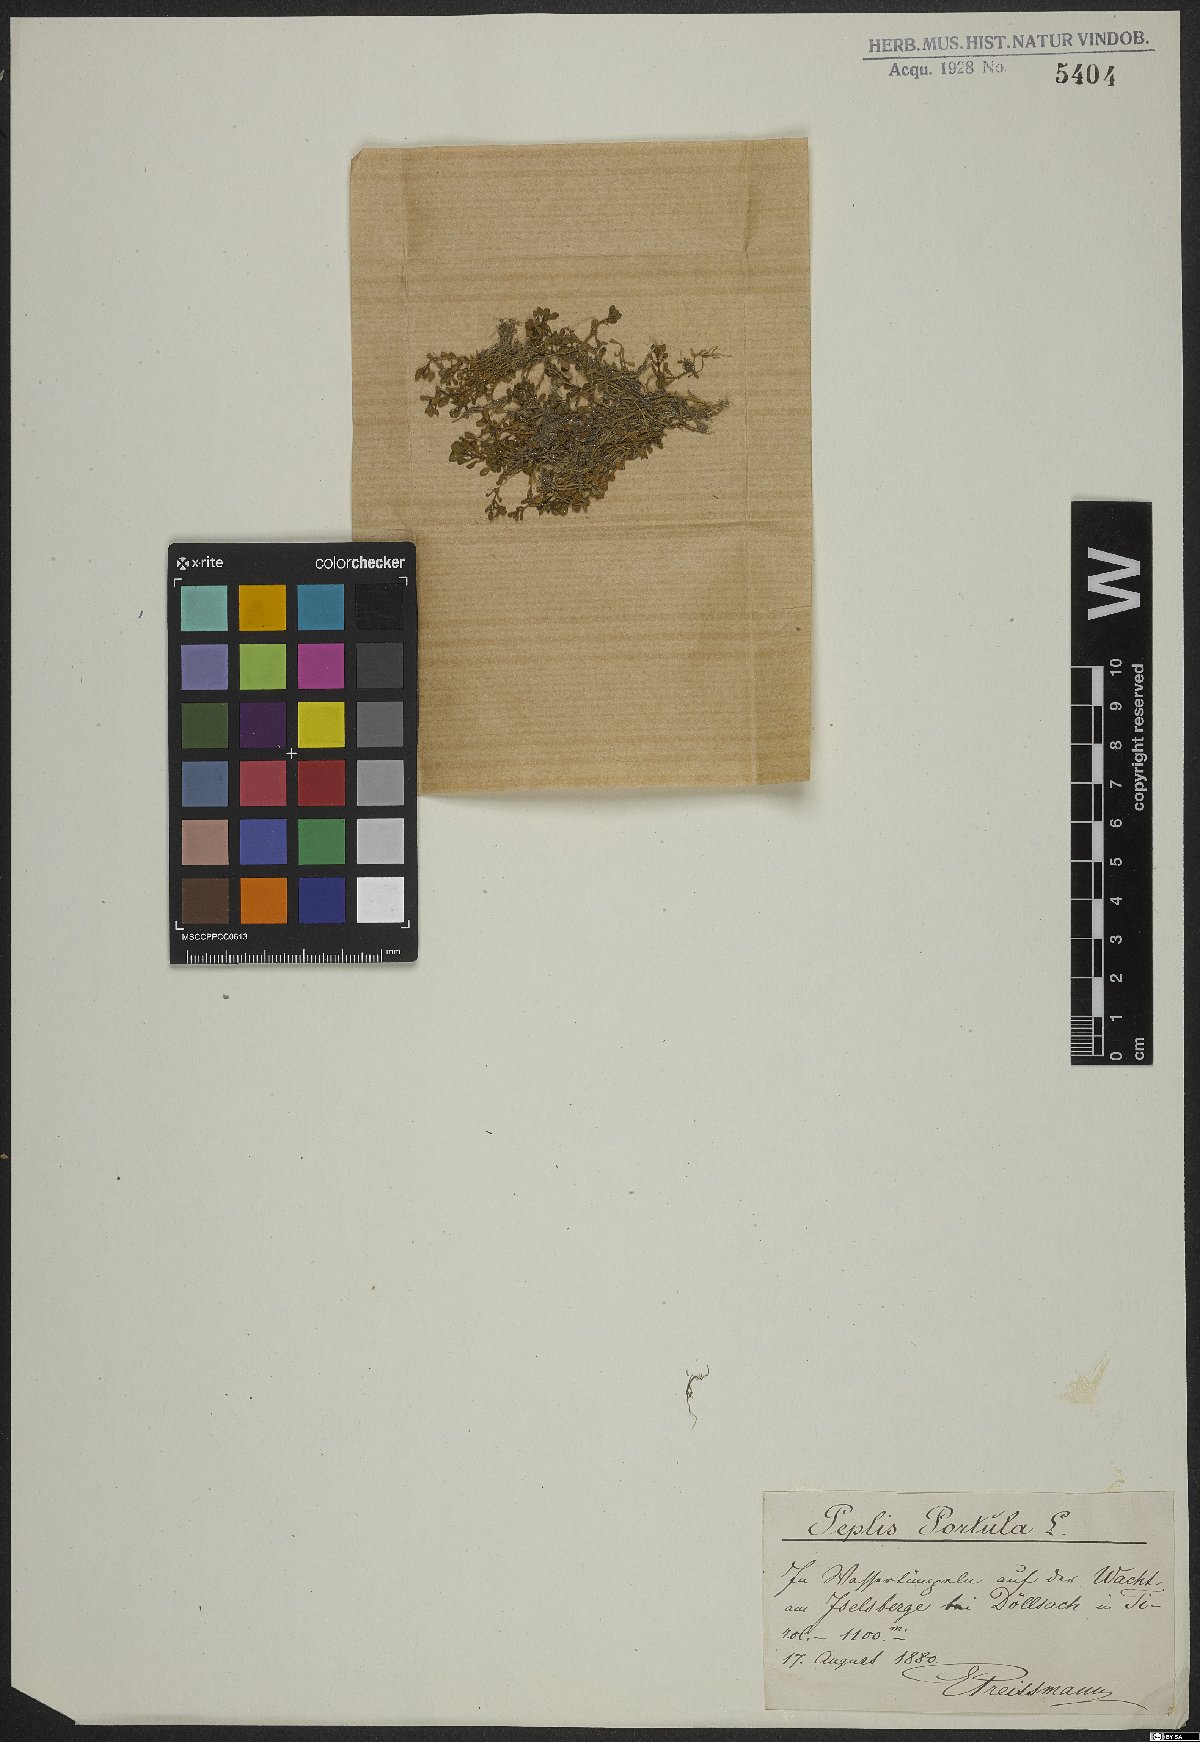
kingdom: Plantae
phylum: Tracheophyta
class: Magnoliopsida
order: Myrtales
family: Lythraceae
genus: Lythrum
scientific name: Lythrum portula
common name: Water purslane
